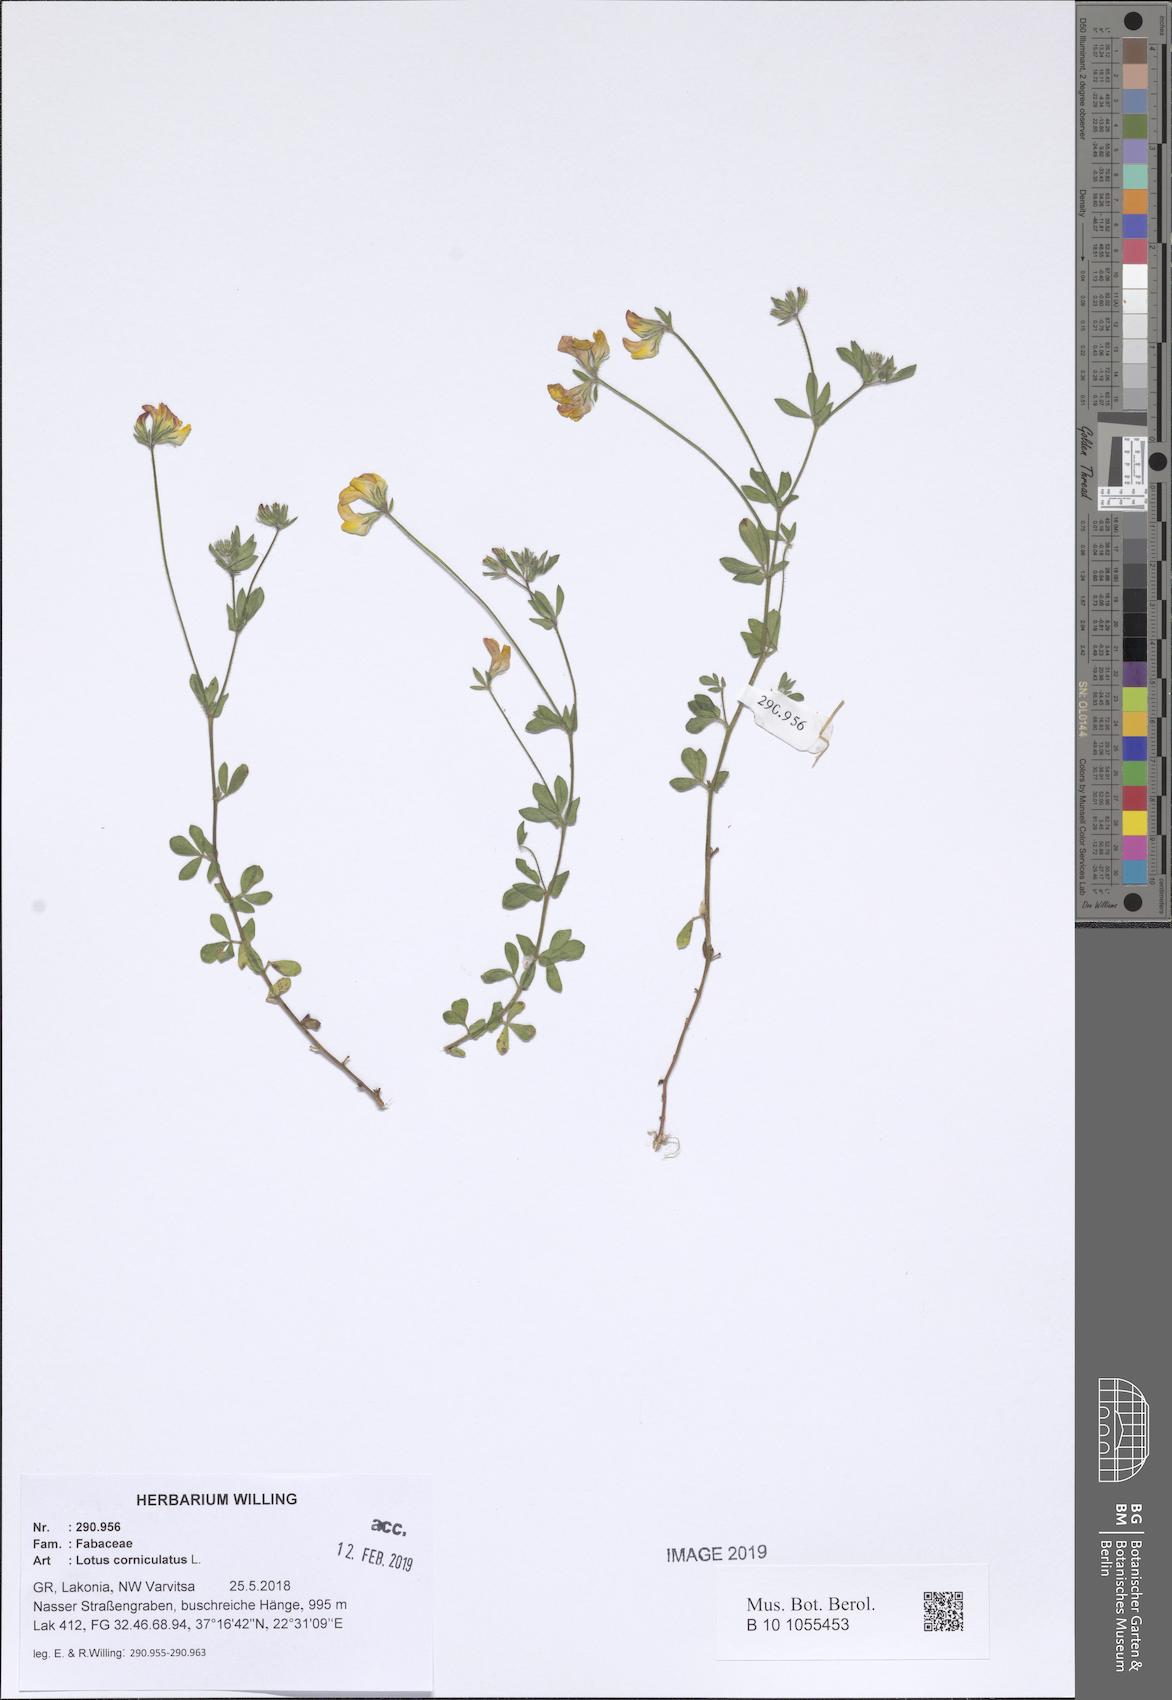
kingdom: Plantae
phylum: Tracheophyta
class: Magnoliopsida
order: Fabales
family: Fabaceae
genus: Lotus
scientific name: Lotus corniculatus
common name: Common bird's-foot-trefoil
